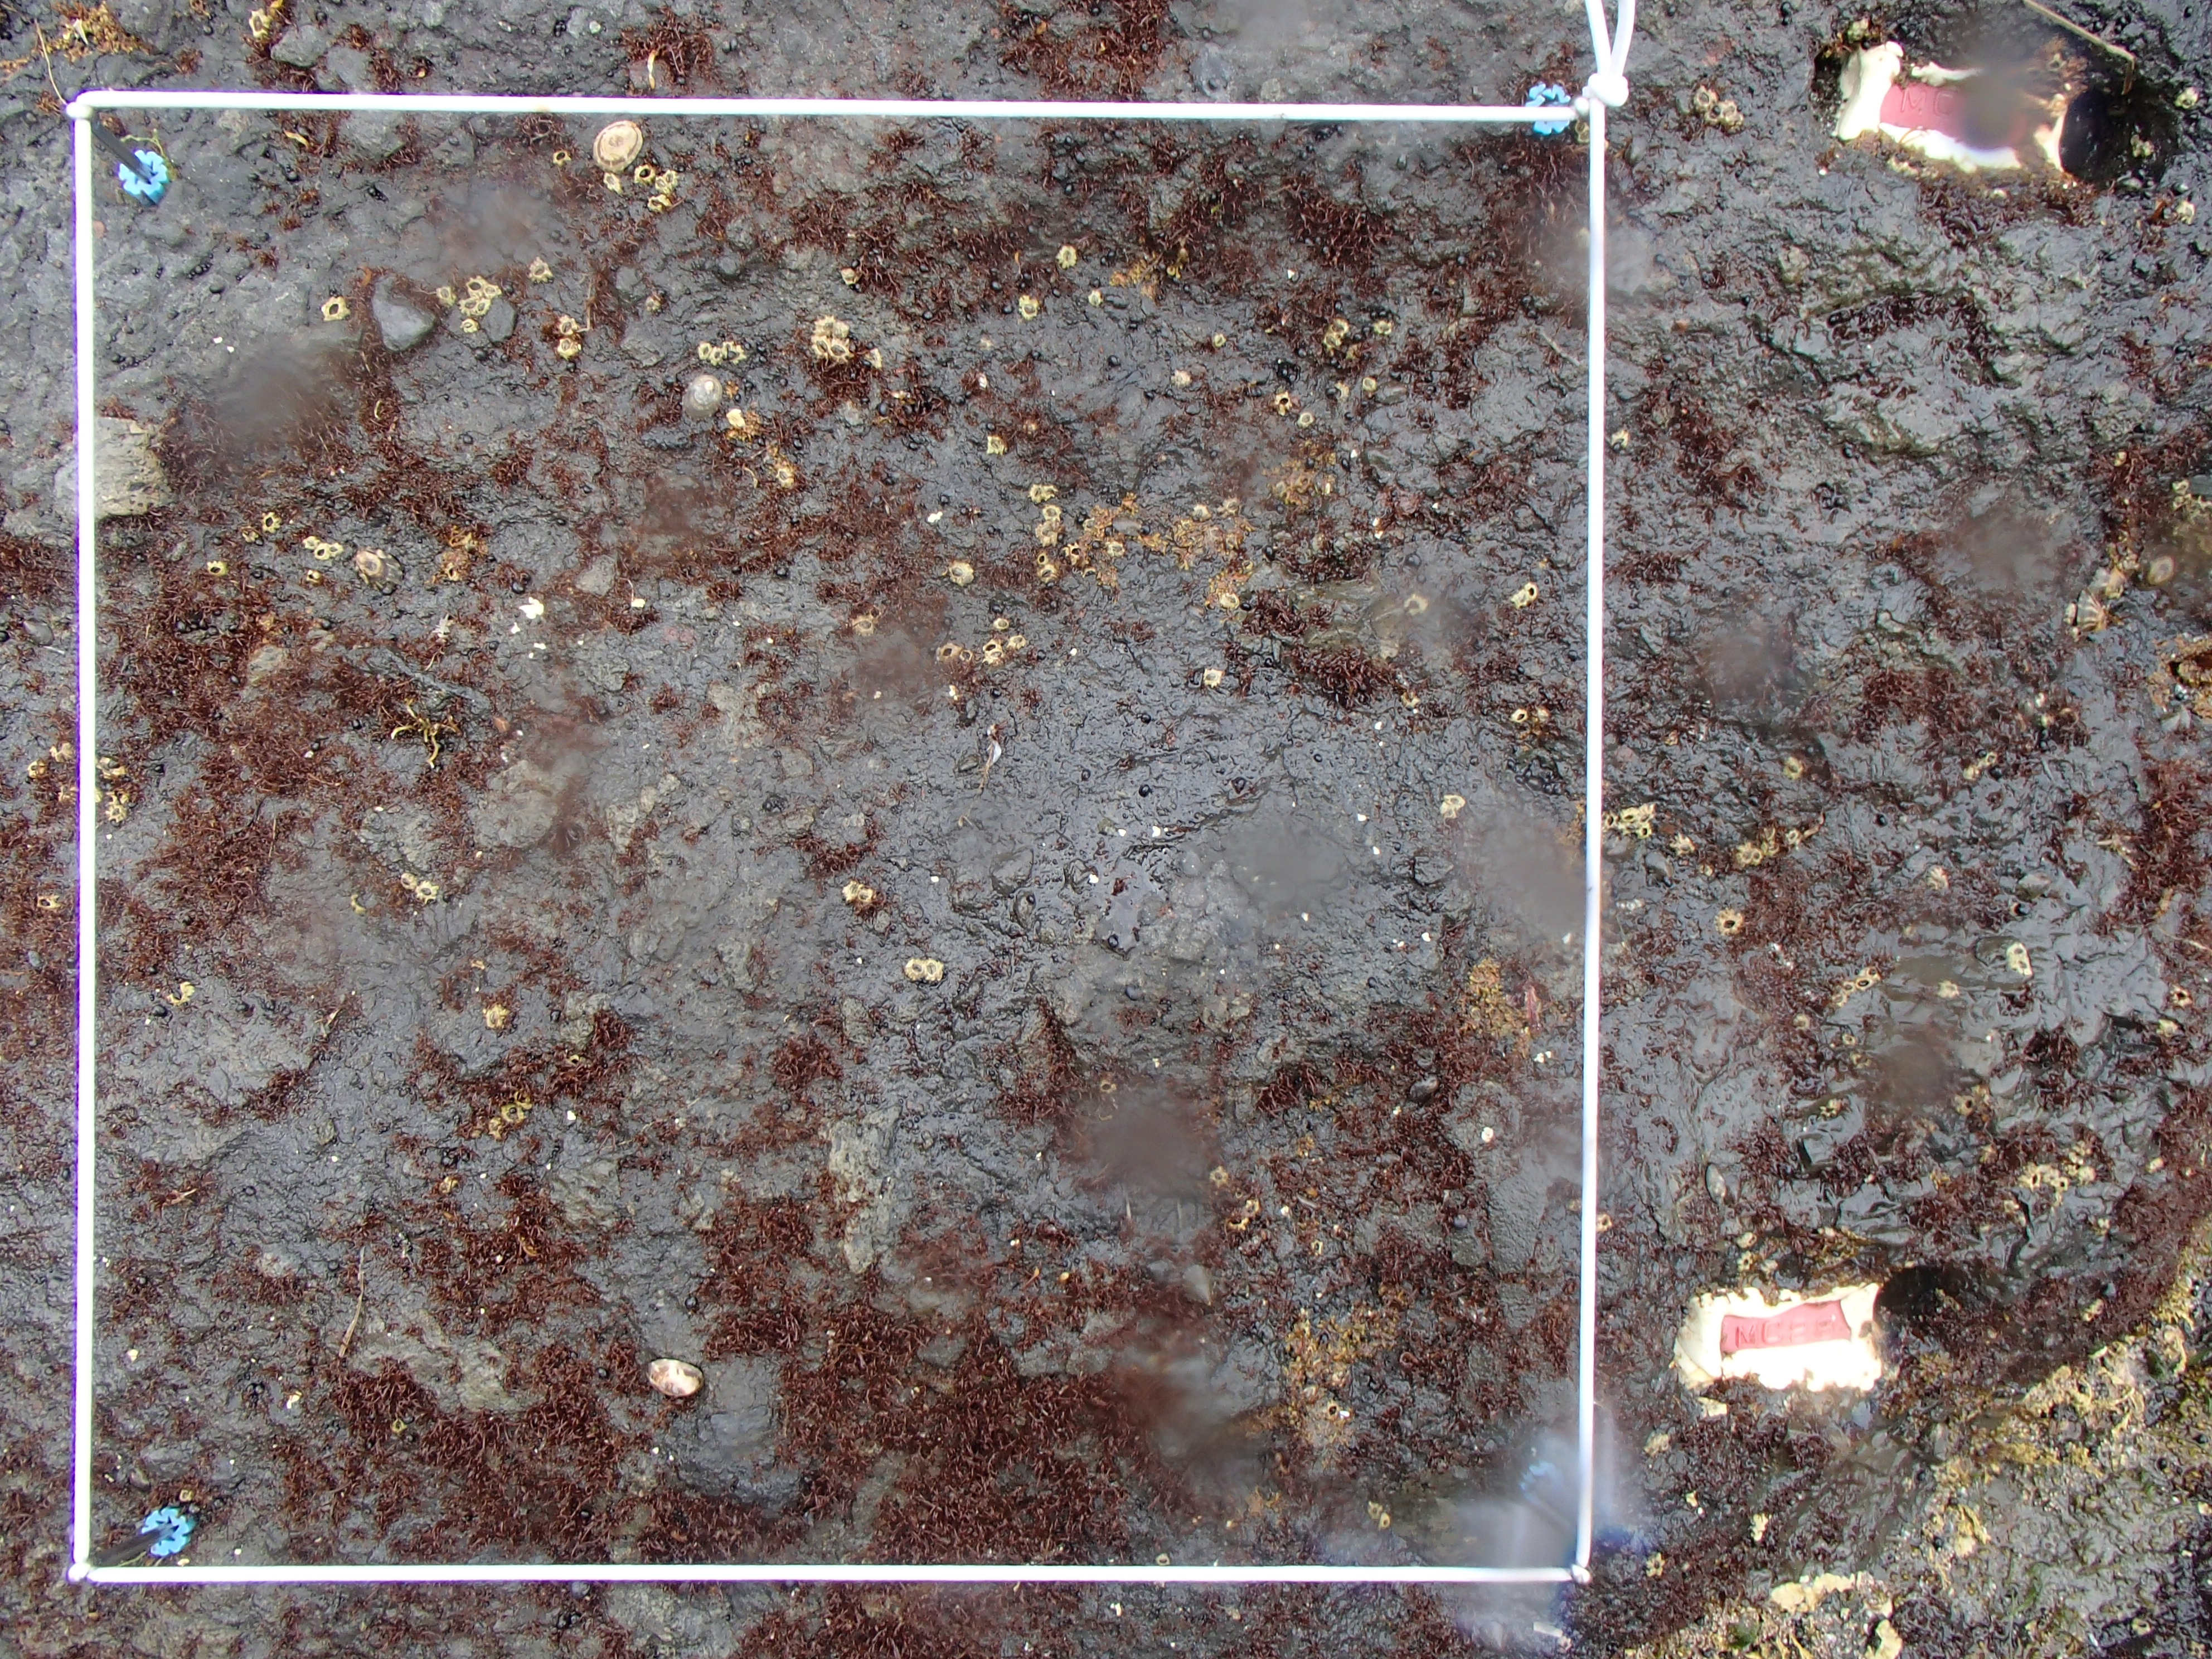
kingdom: Animalia
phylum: Arthropoda
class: Maxillopoda
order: Sessilia
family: Chthamalidae
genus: Chthamalus
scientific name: Chthamalus dalli
